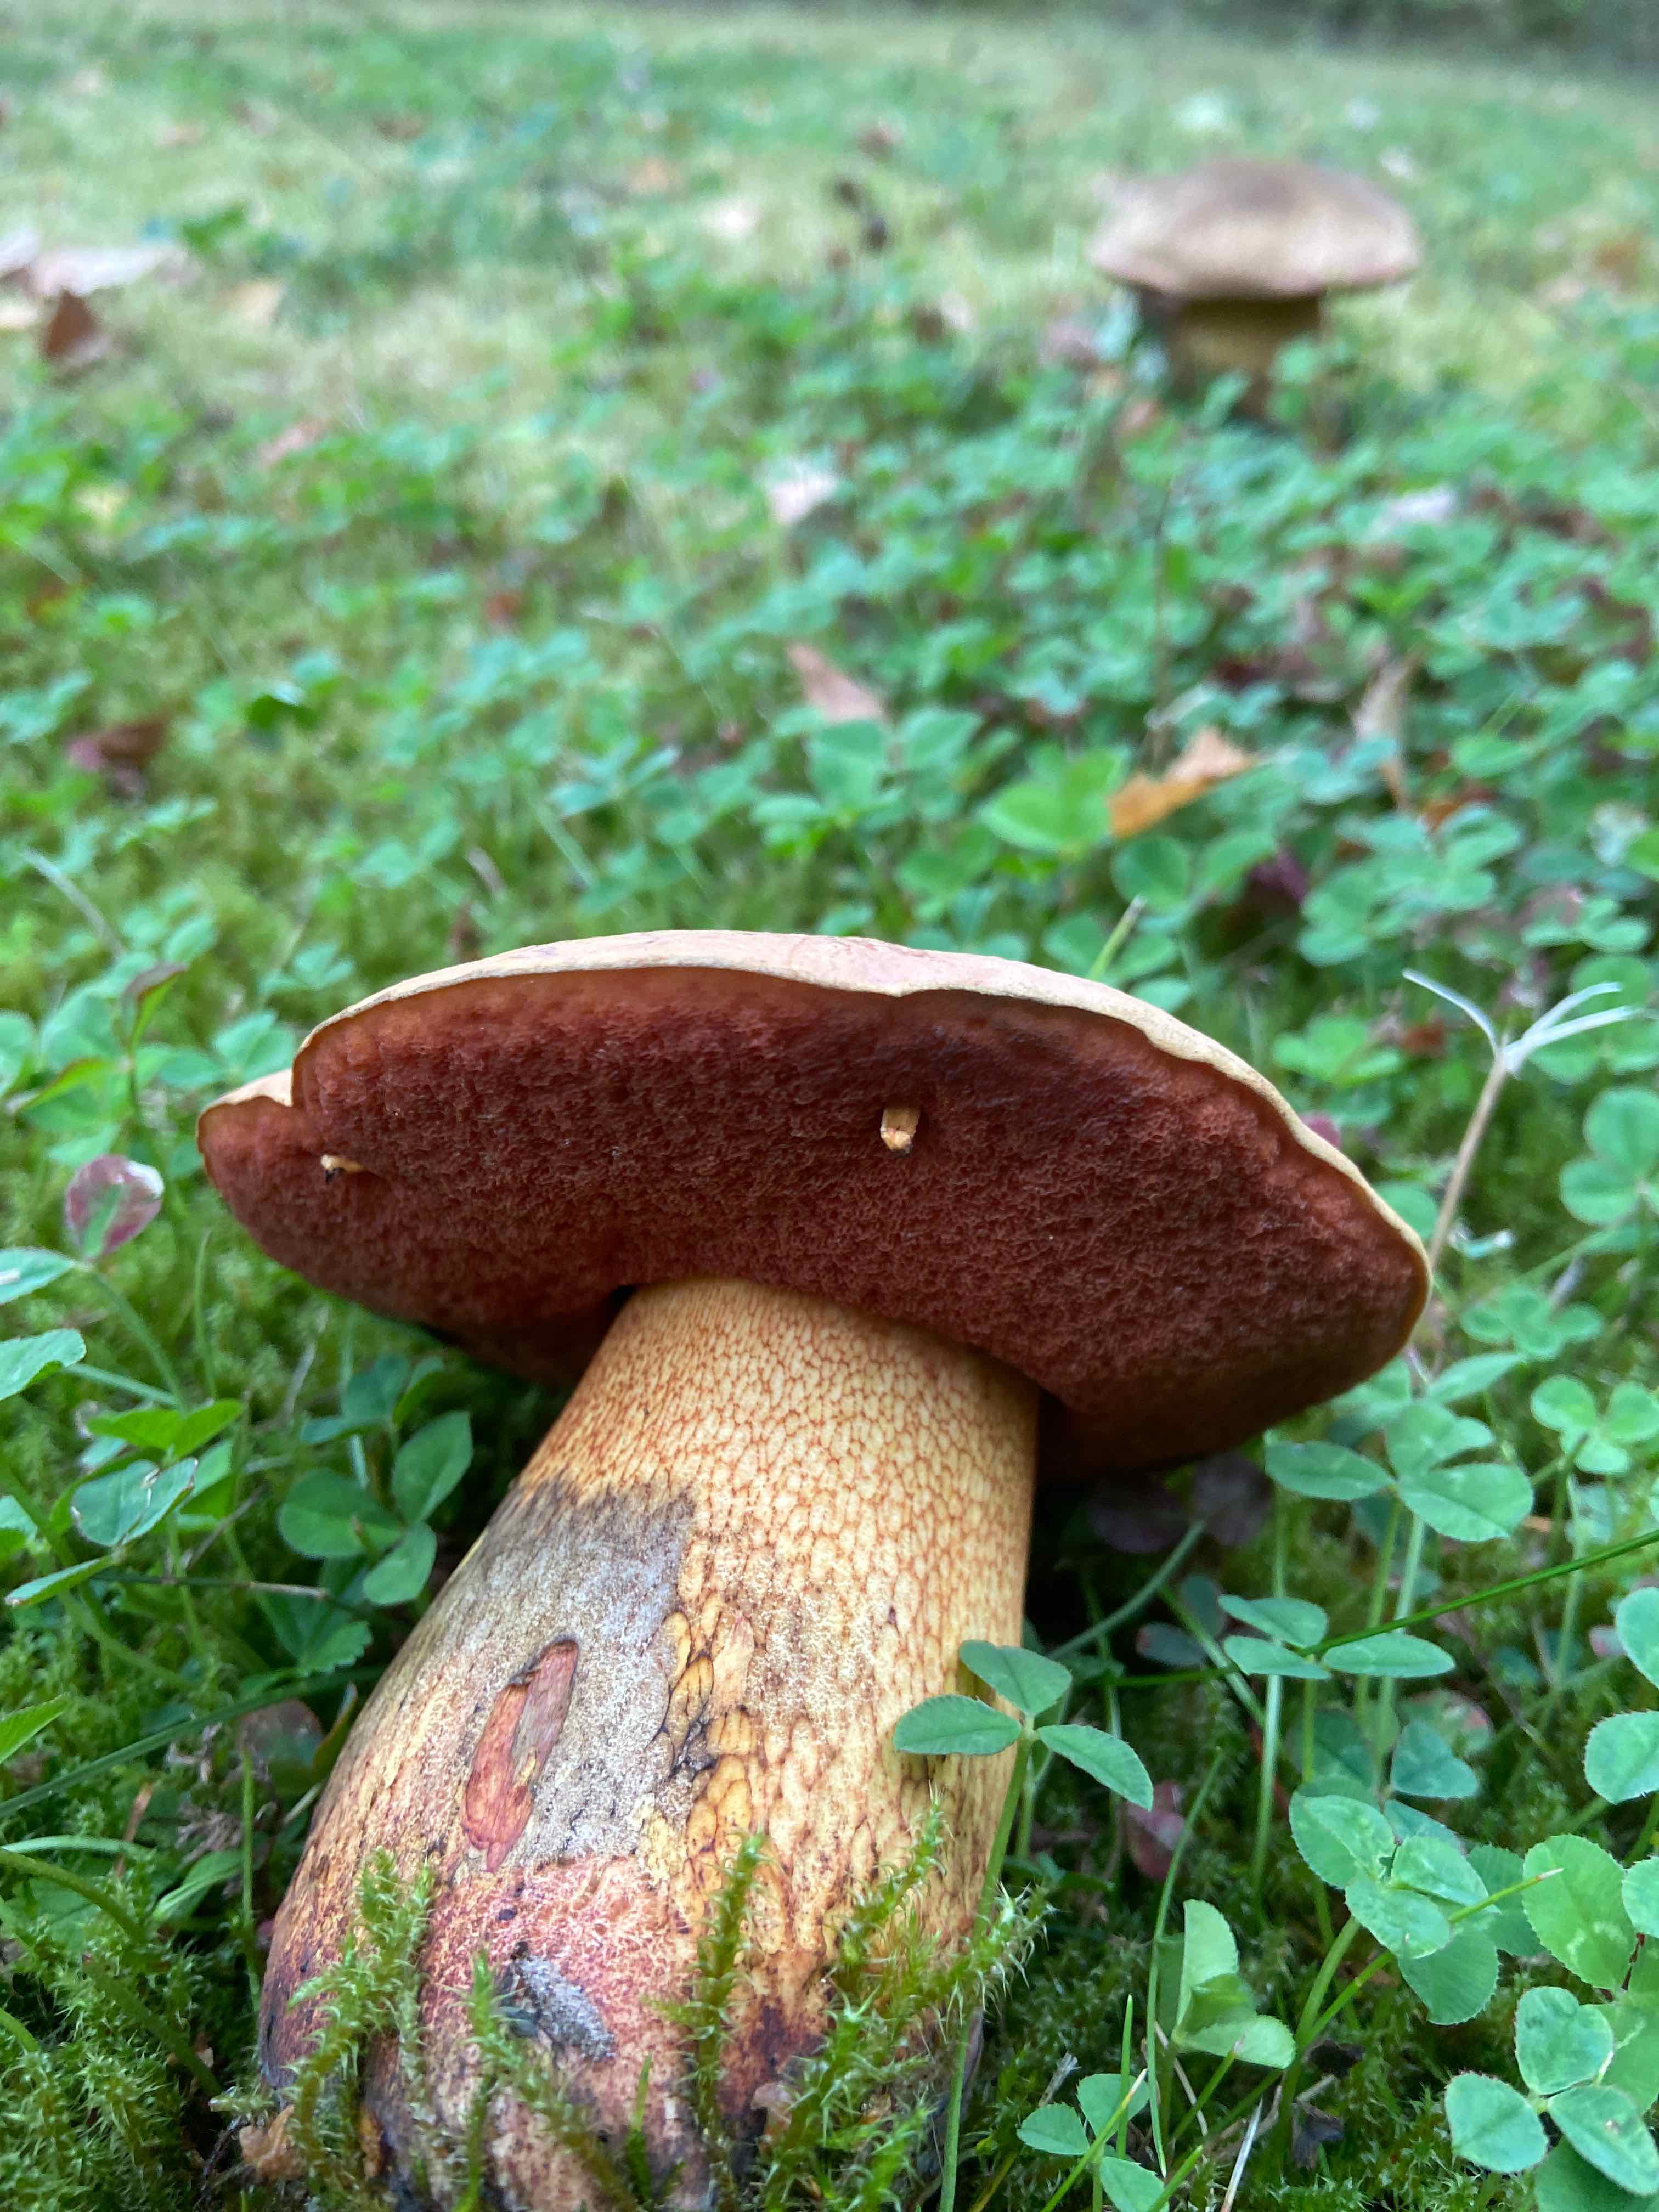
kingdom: Fungi
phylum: Basidiomycota
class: Agaricomycetes
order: Boletales
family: Boletaceae
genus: Suillellus
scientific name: Suillellus luridus
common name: netstokket indigorørhat
